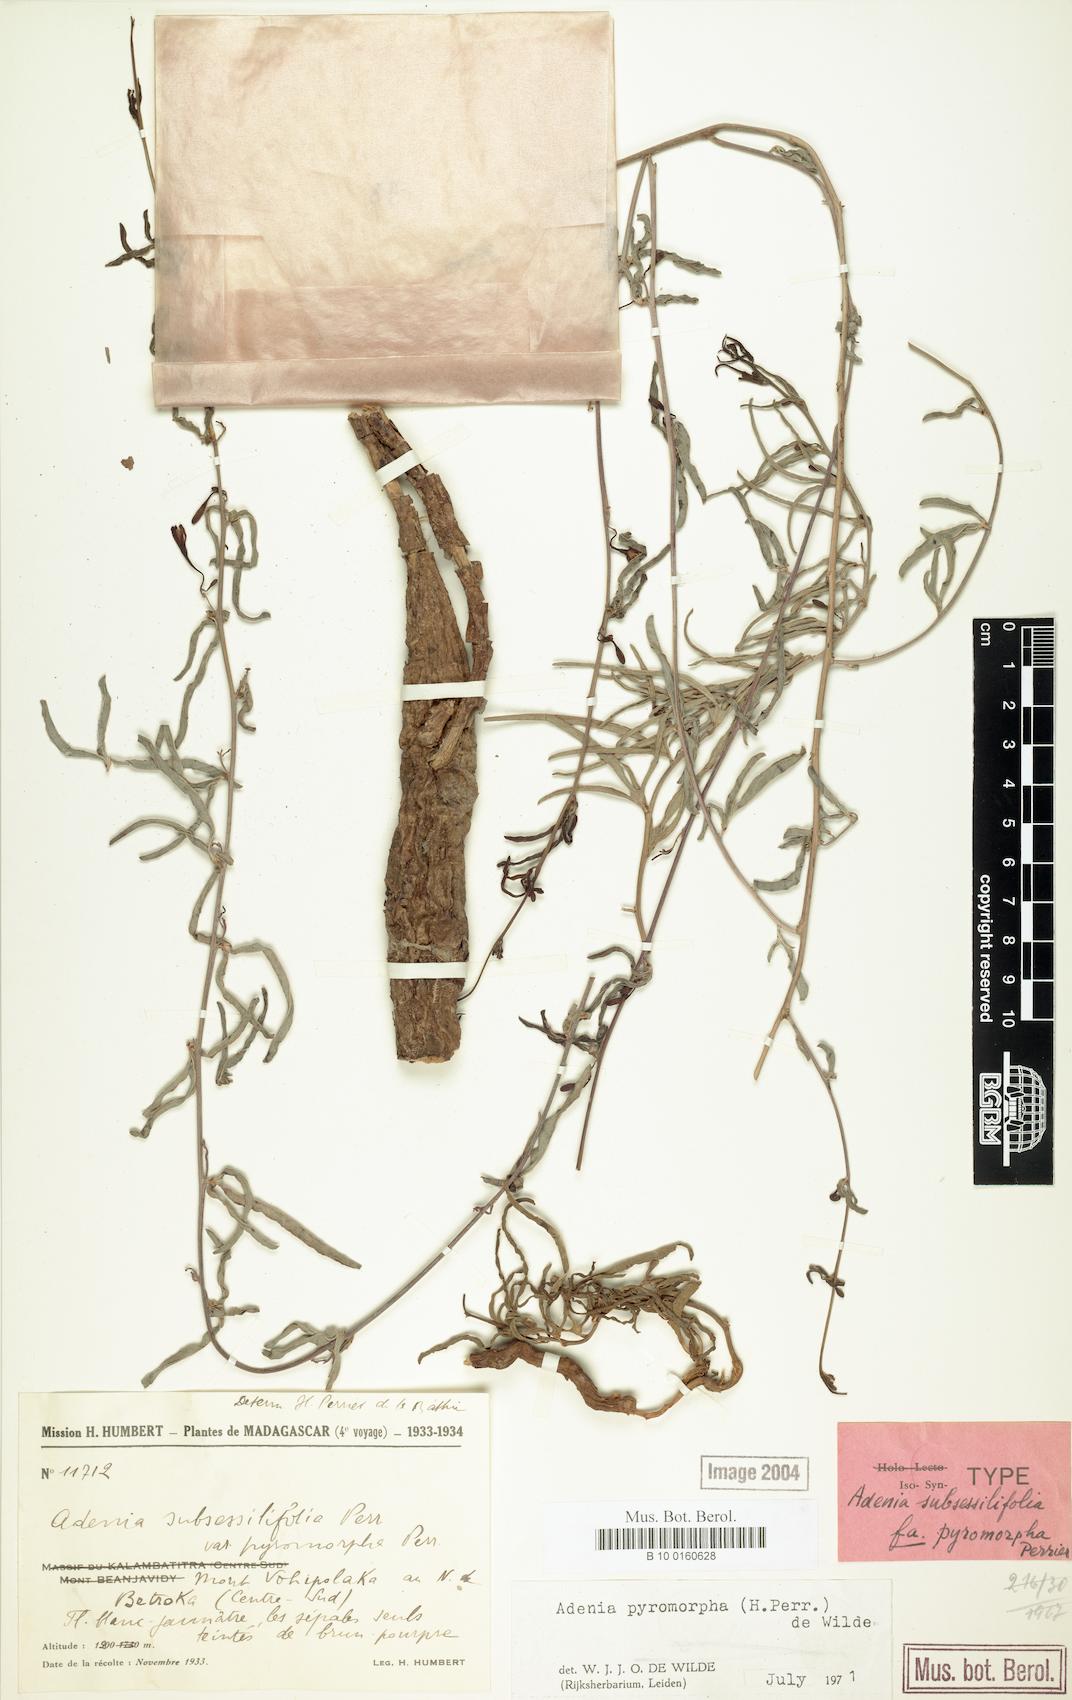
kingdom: Plantae
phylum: Tracheophyta
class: Magnoliopsida
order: Malpighiales
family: Passifloraceae
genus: Adenia
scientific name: Adenia pyromorpha
